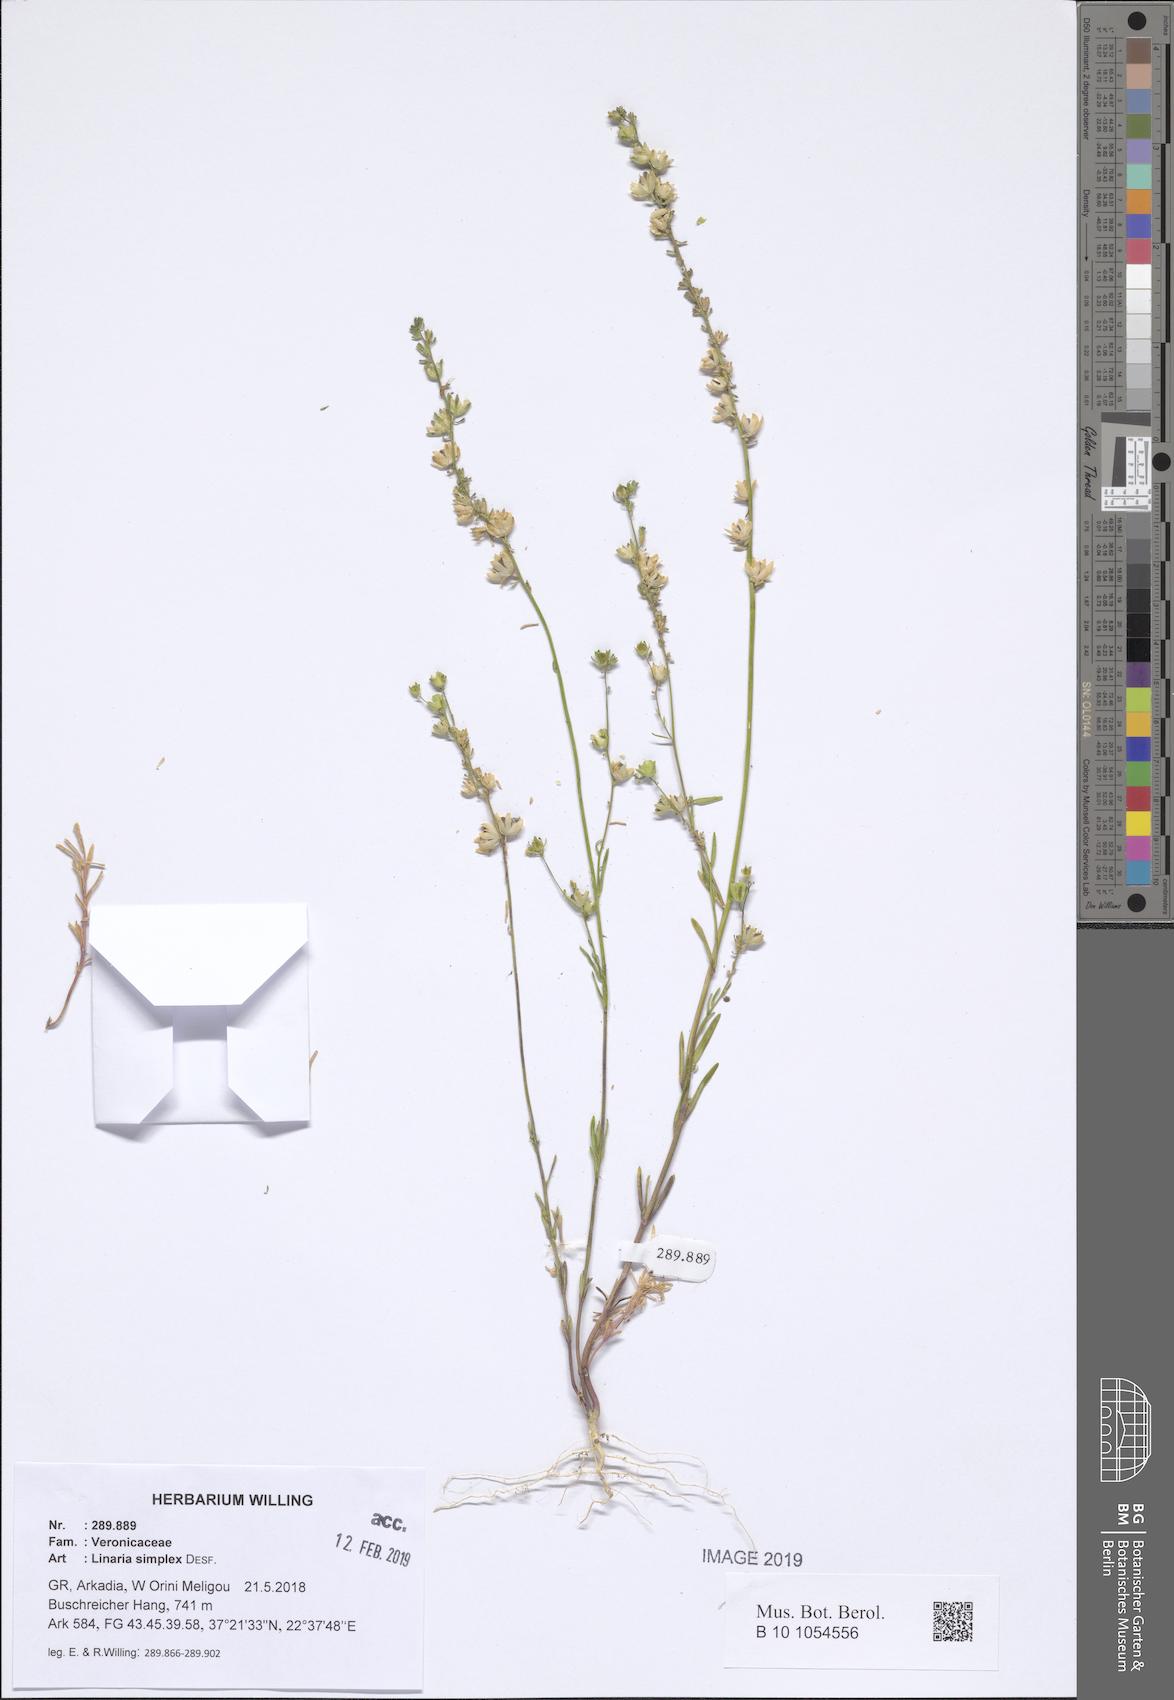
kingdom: Plantae
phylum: Tracheophyta
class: Magnoliopsida
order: Lamiales
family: Plantaginaceae
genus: Linaria
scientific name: Linaria simplex
